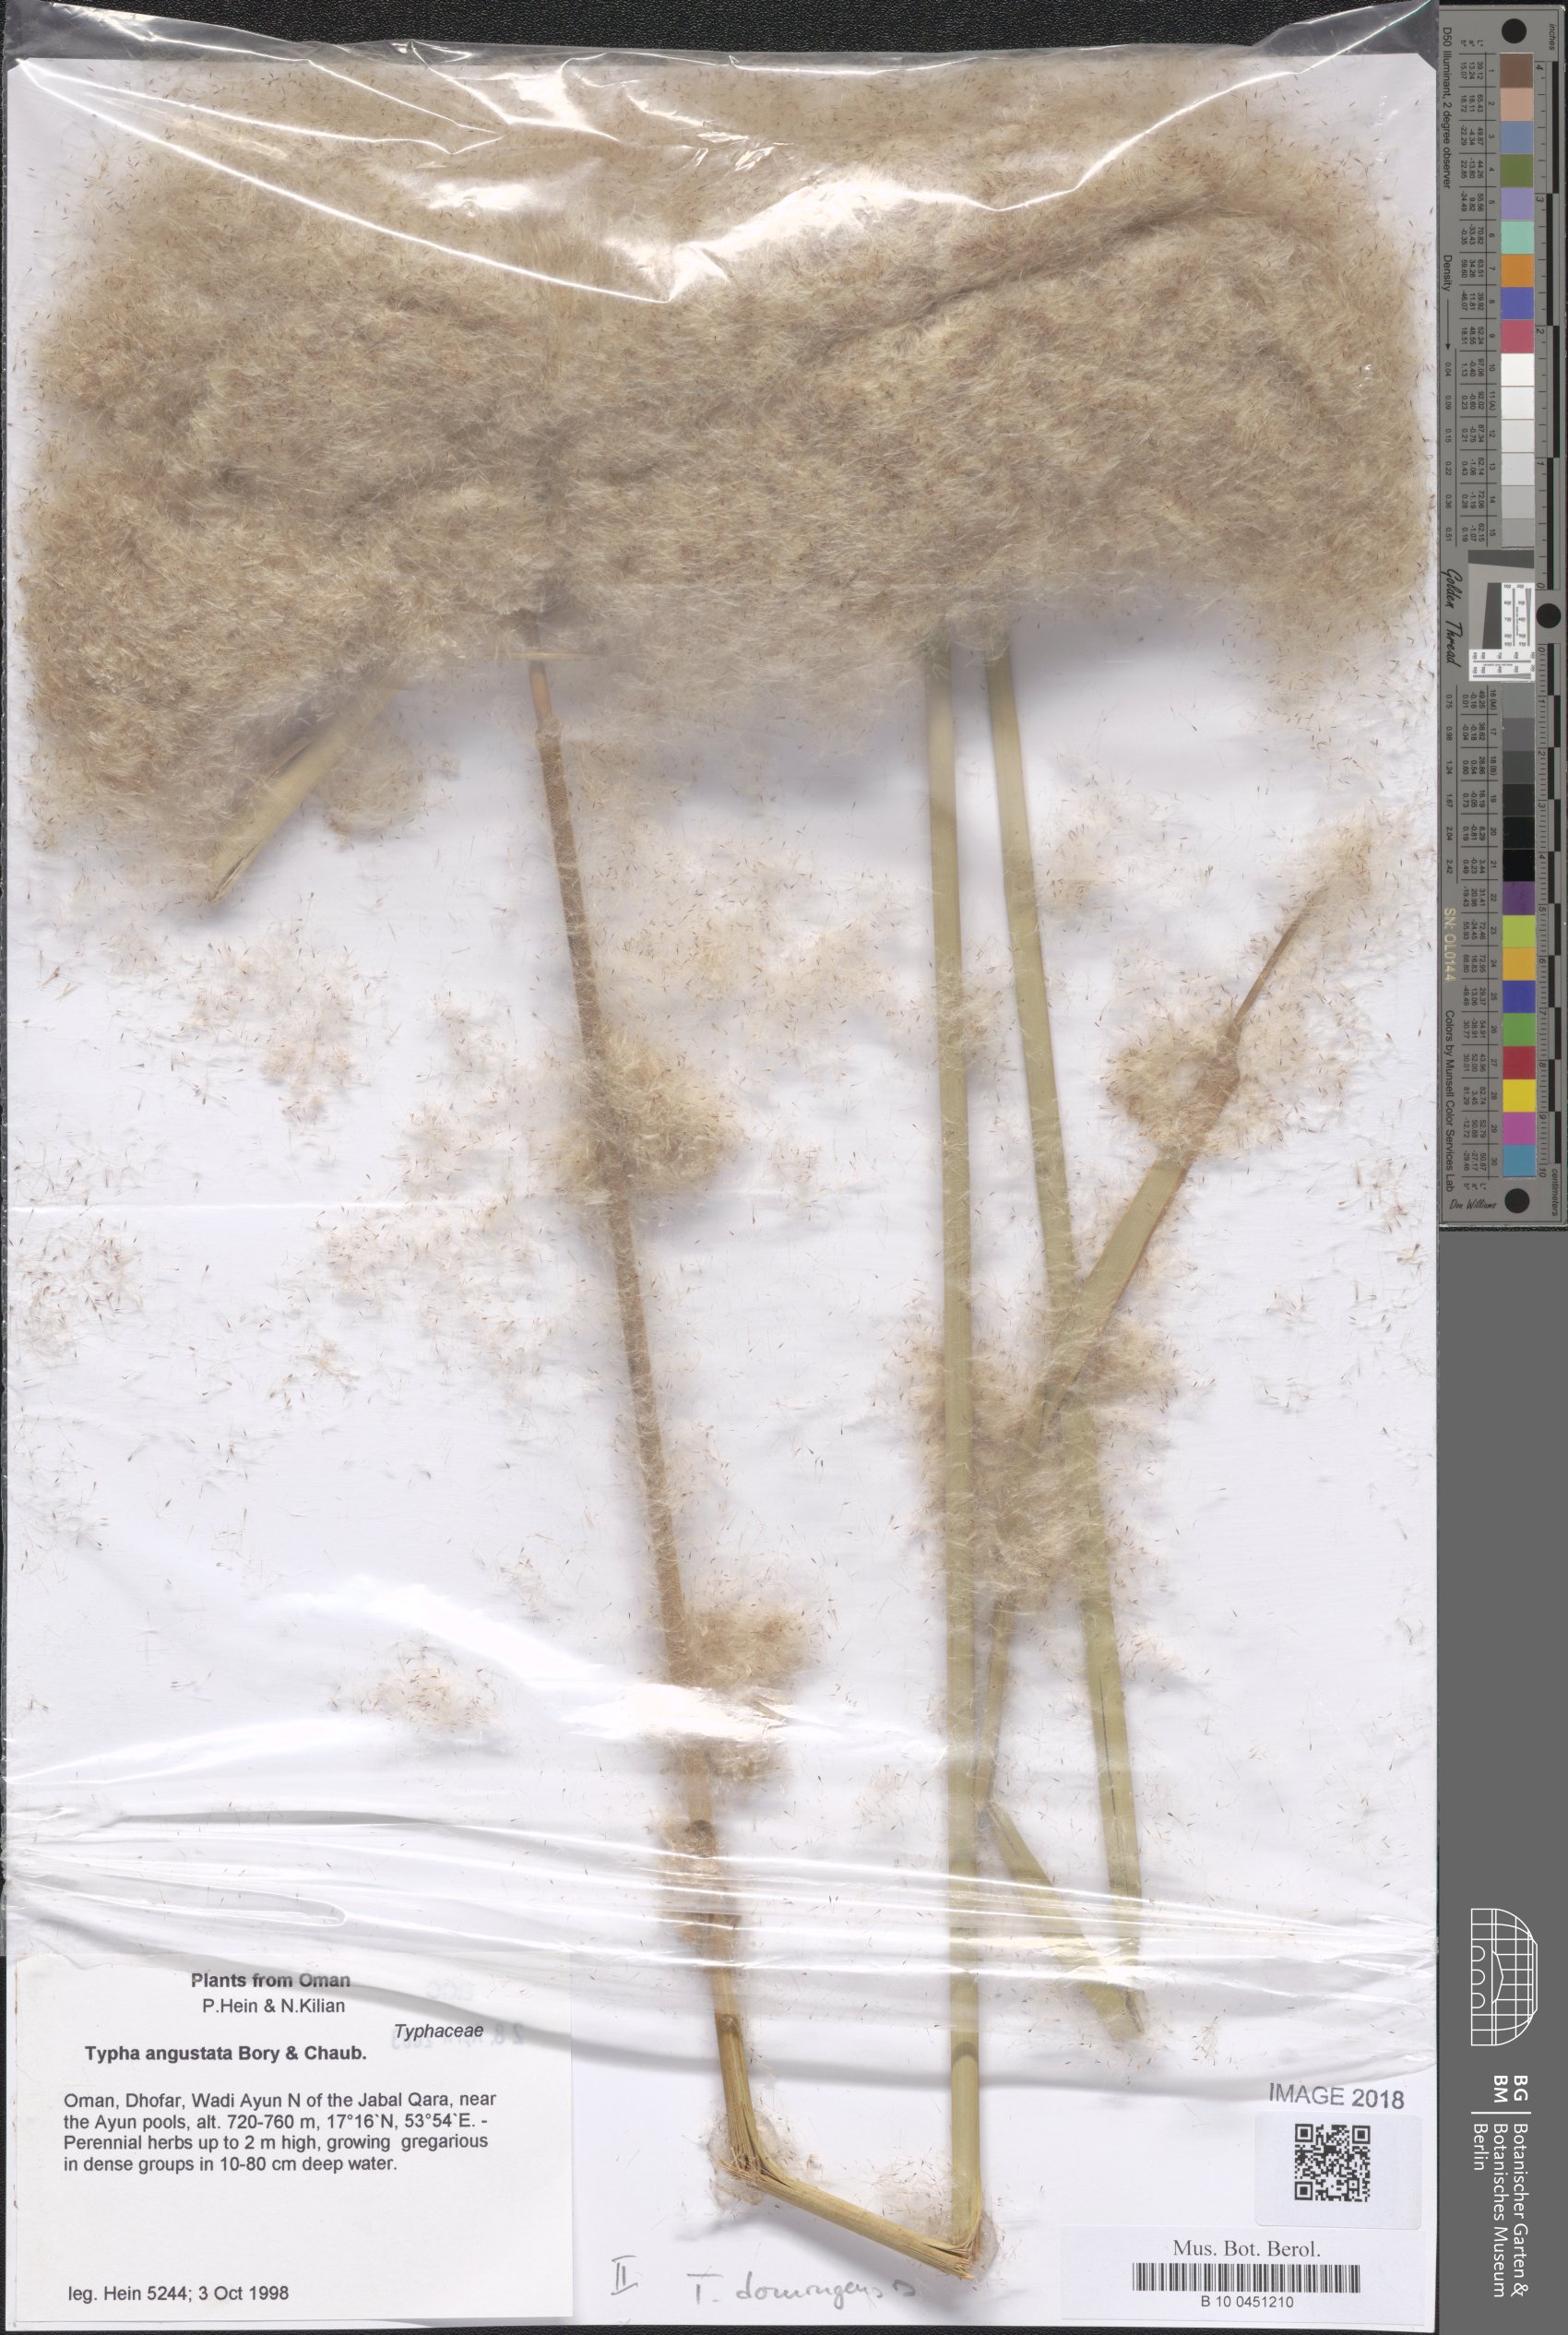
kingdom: Plantae
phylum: Tracheophyta
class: Liliopsida
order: Poales
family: Typhaceae
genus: Typha
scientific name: Typha domingensis
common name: Southern cattail
